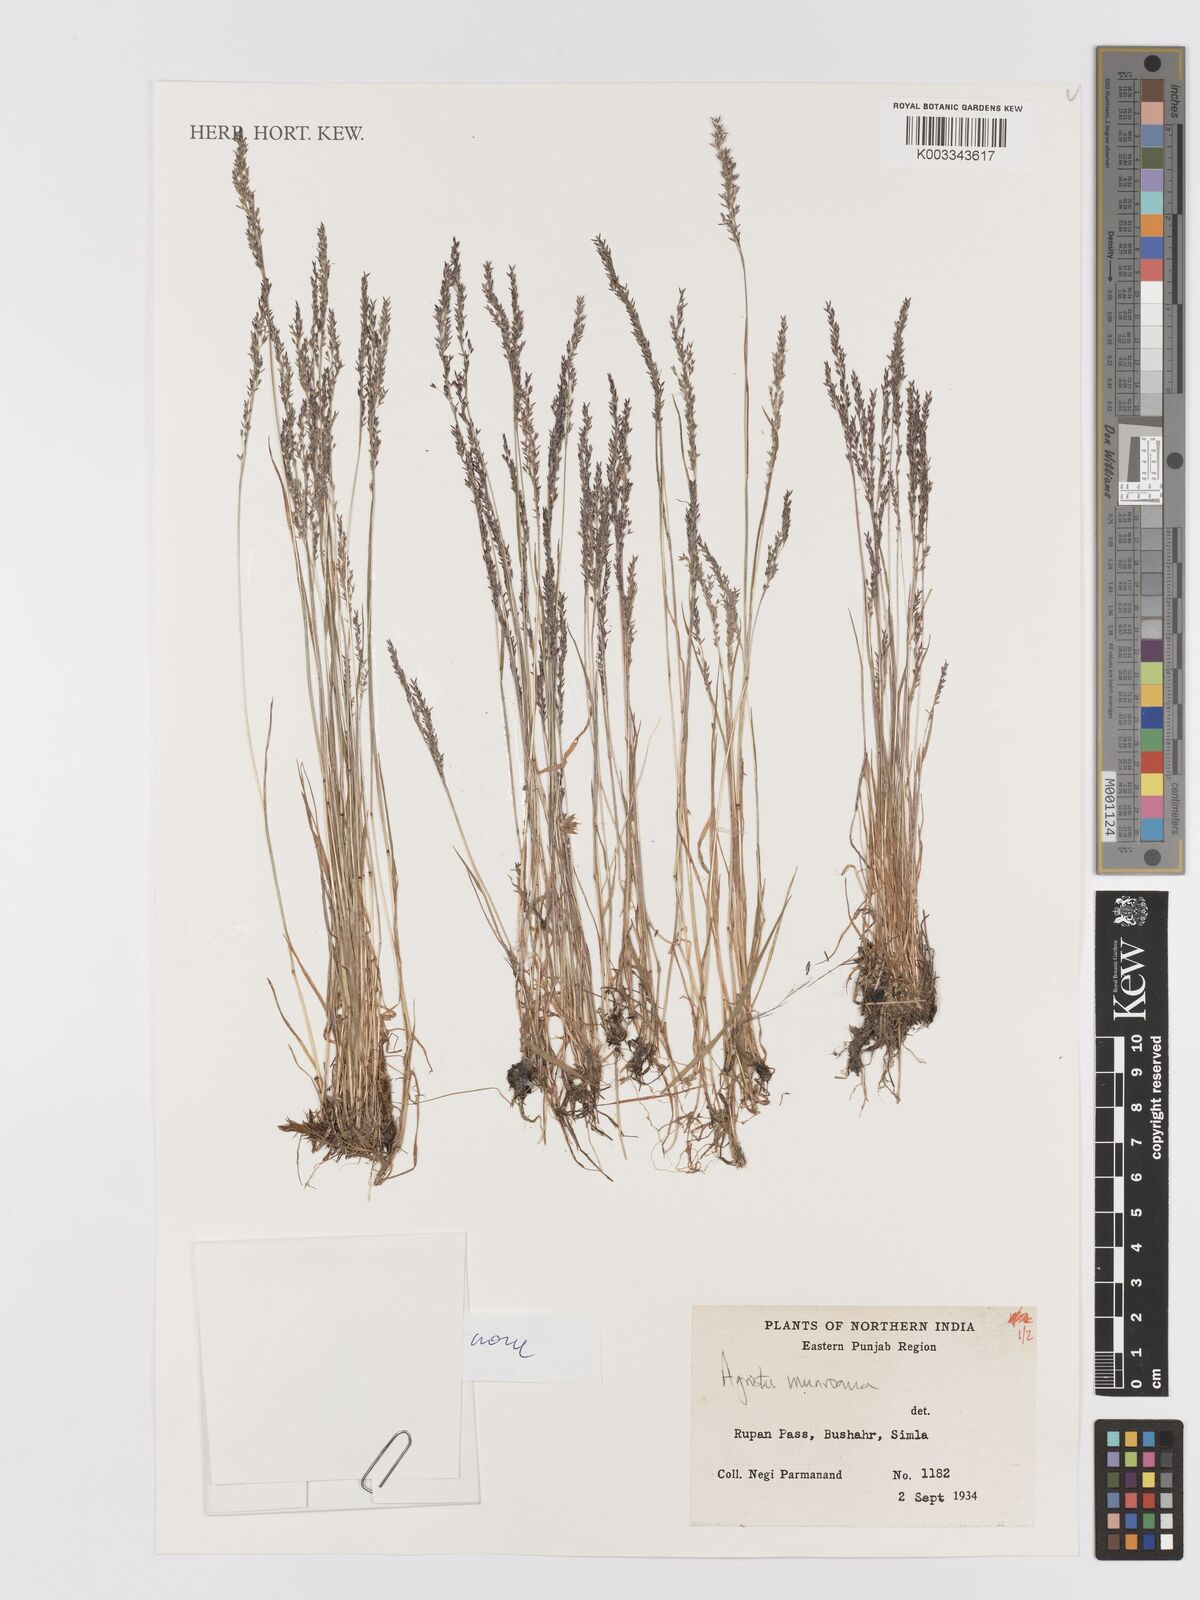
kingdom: Plantae
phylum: Tracheophyta
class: Liliopsida
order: Poales
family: Poaceae
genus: Agrostis
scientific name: Agrostis munroana
